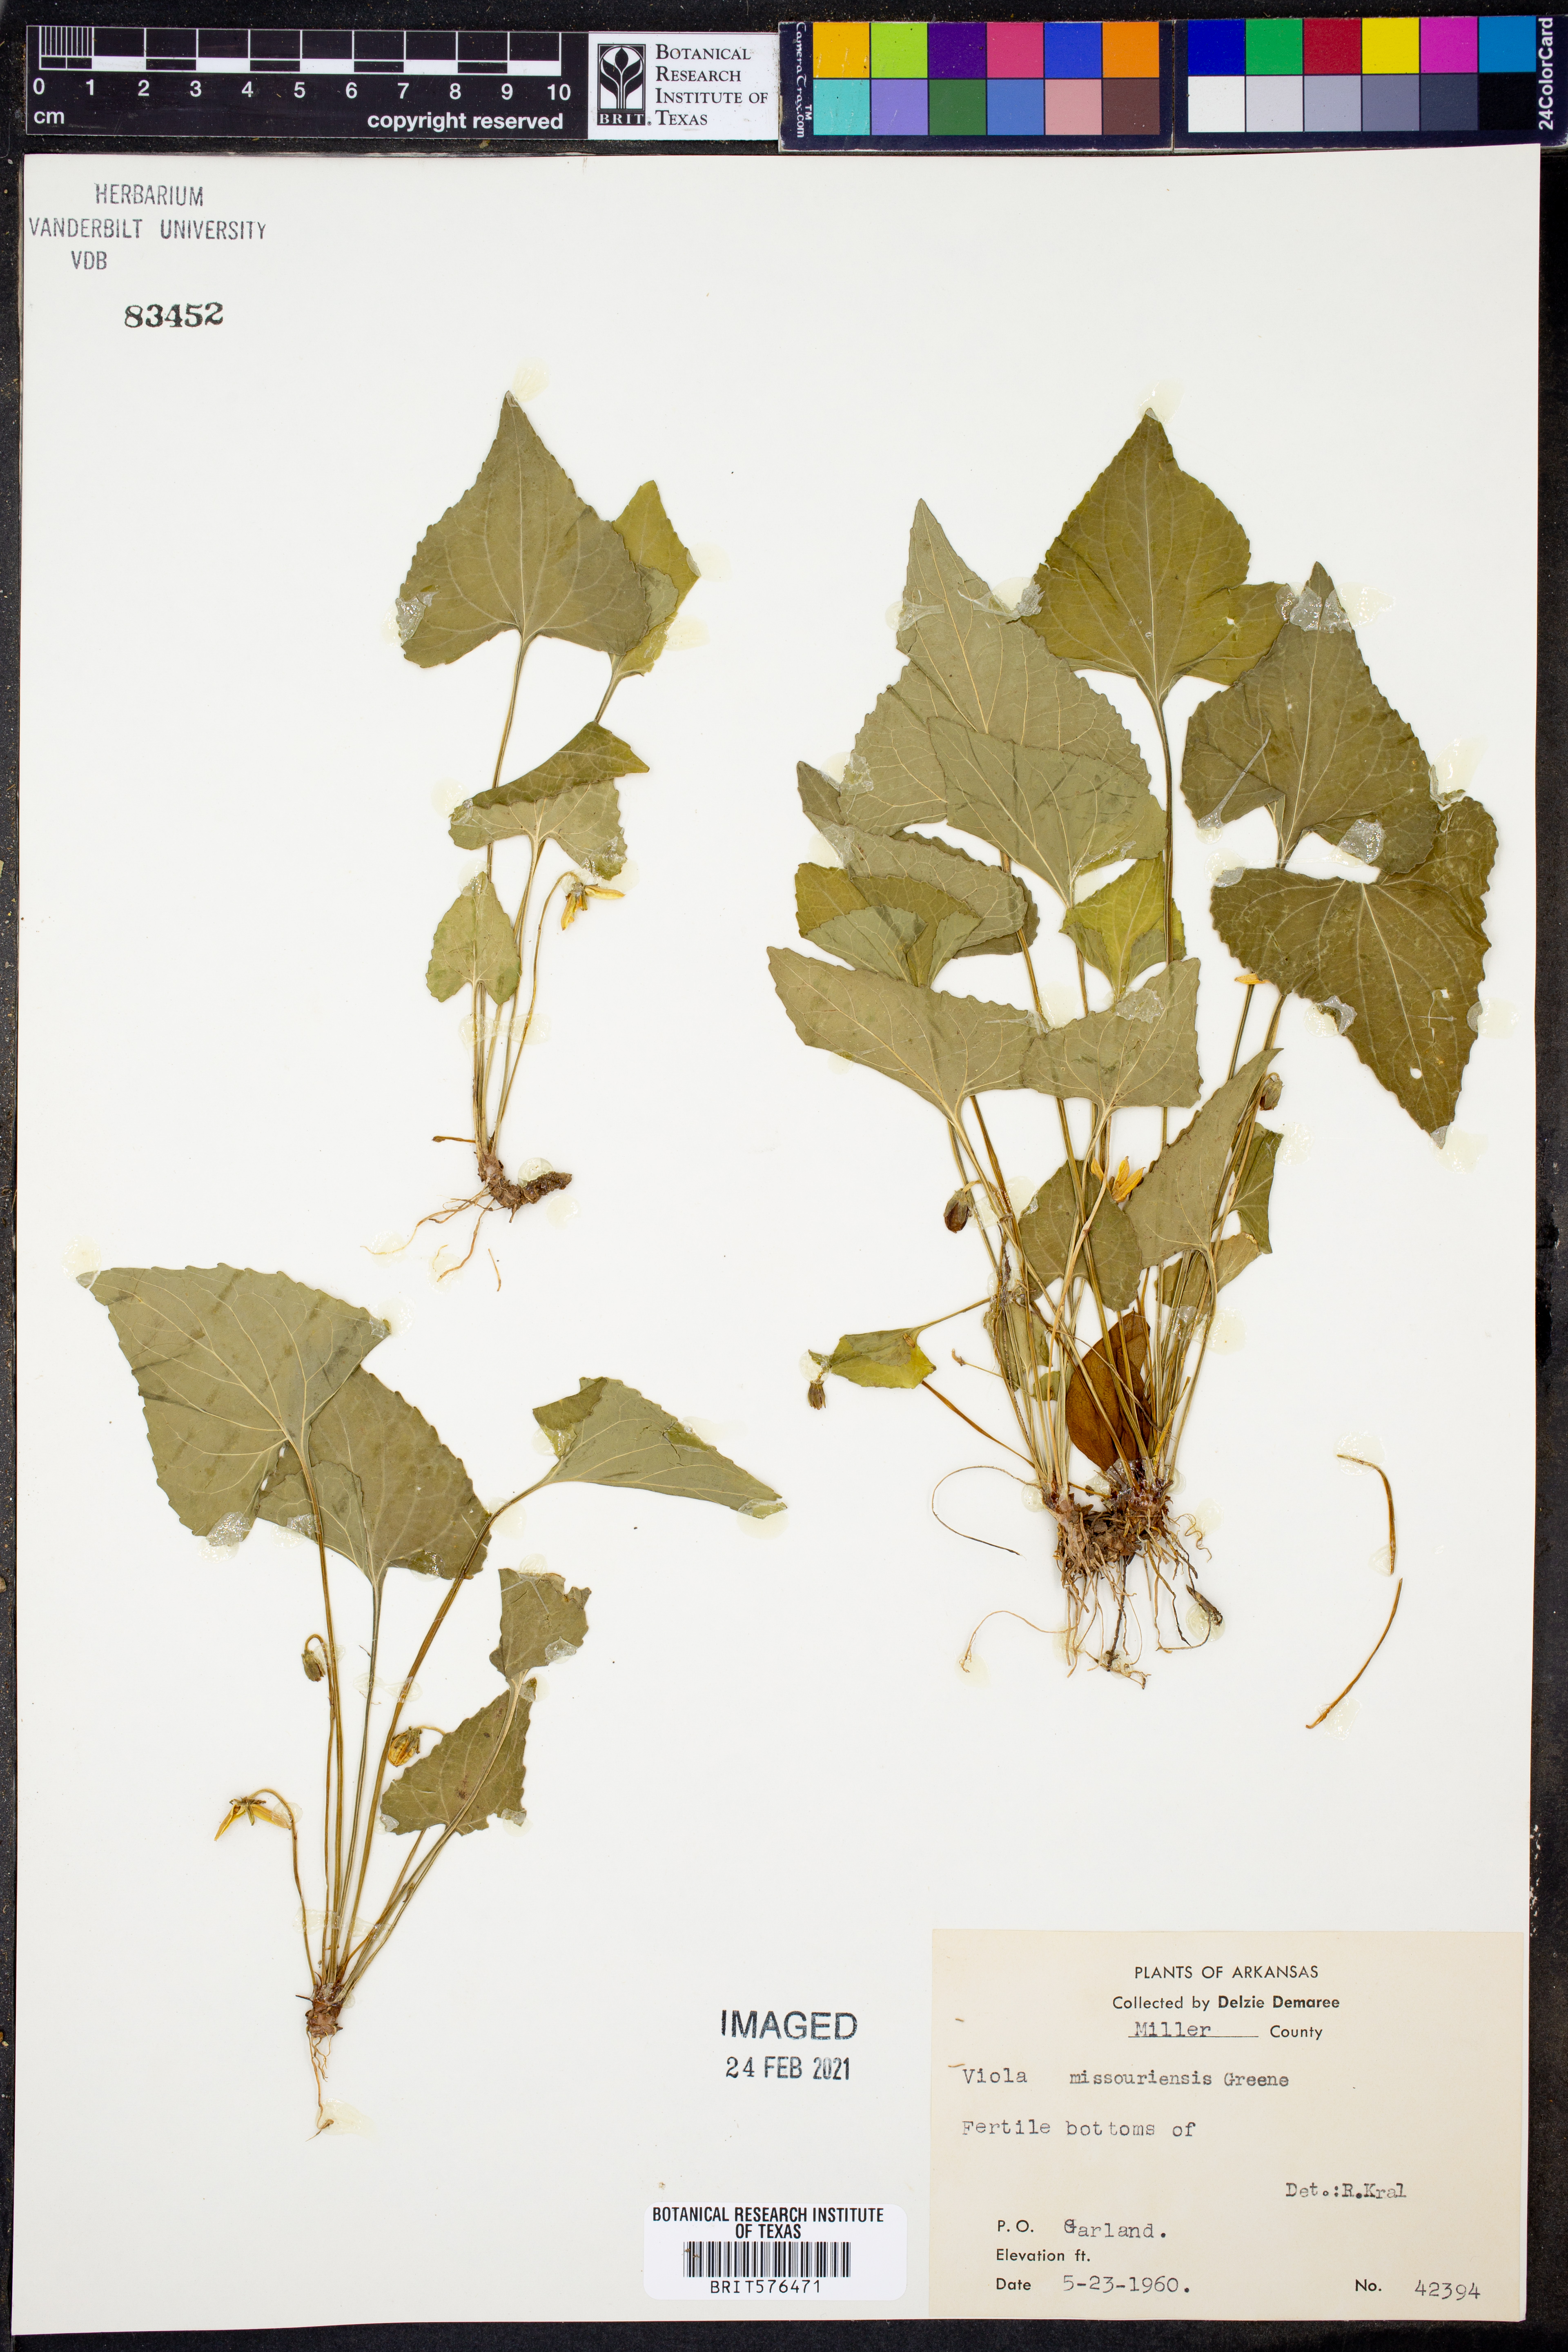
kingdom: Plantae
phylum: Tracheophyta
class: Magnoliopsida
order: Malpighiales
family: Violaceae
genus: Viola
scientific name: Viola missouriensis
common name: Missouri violet
